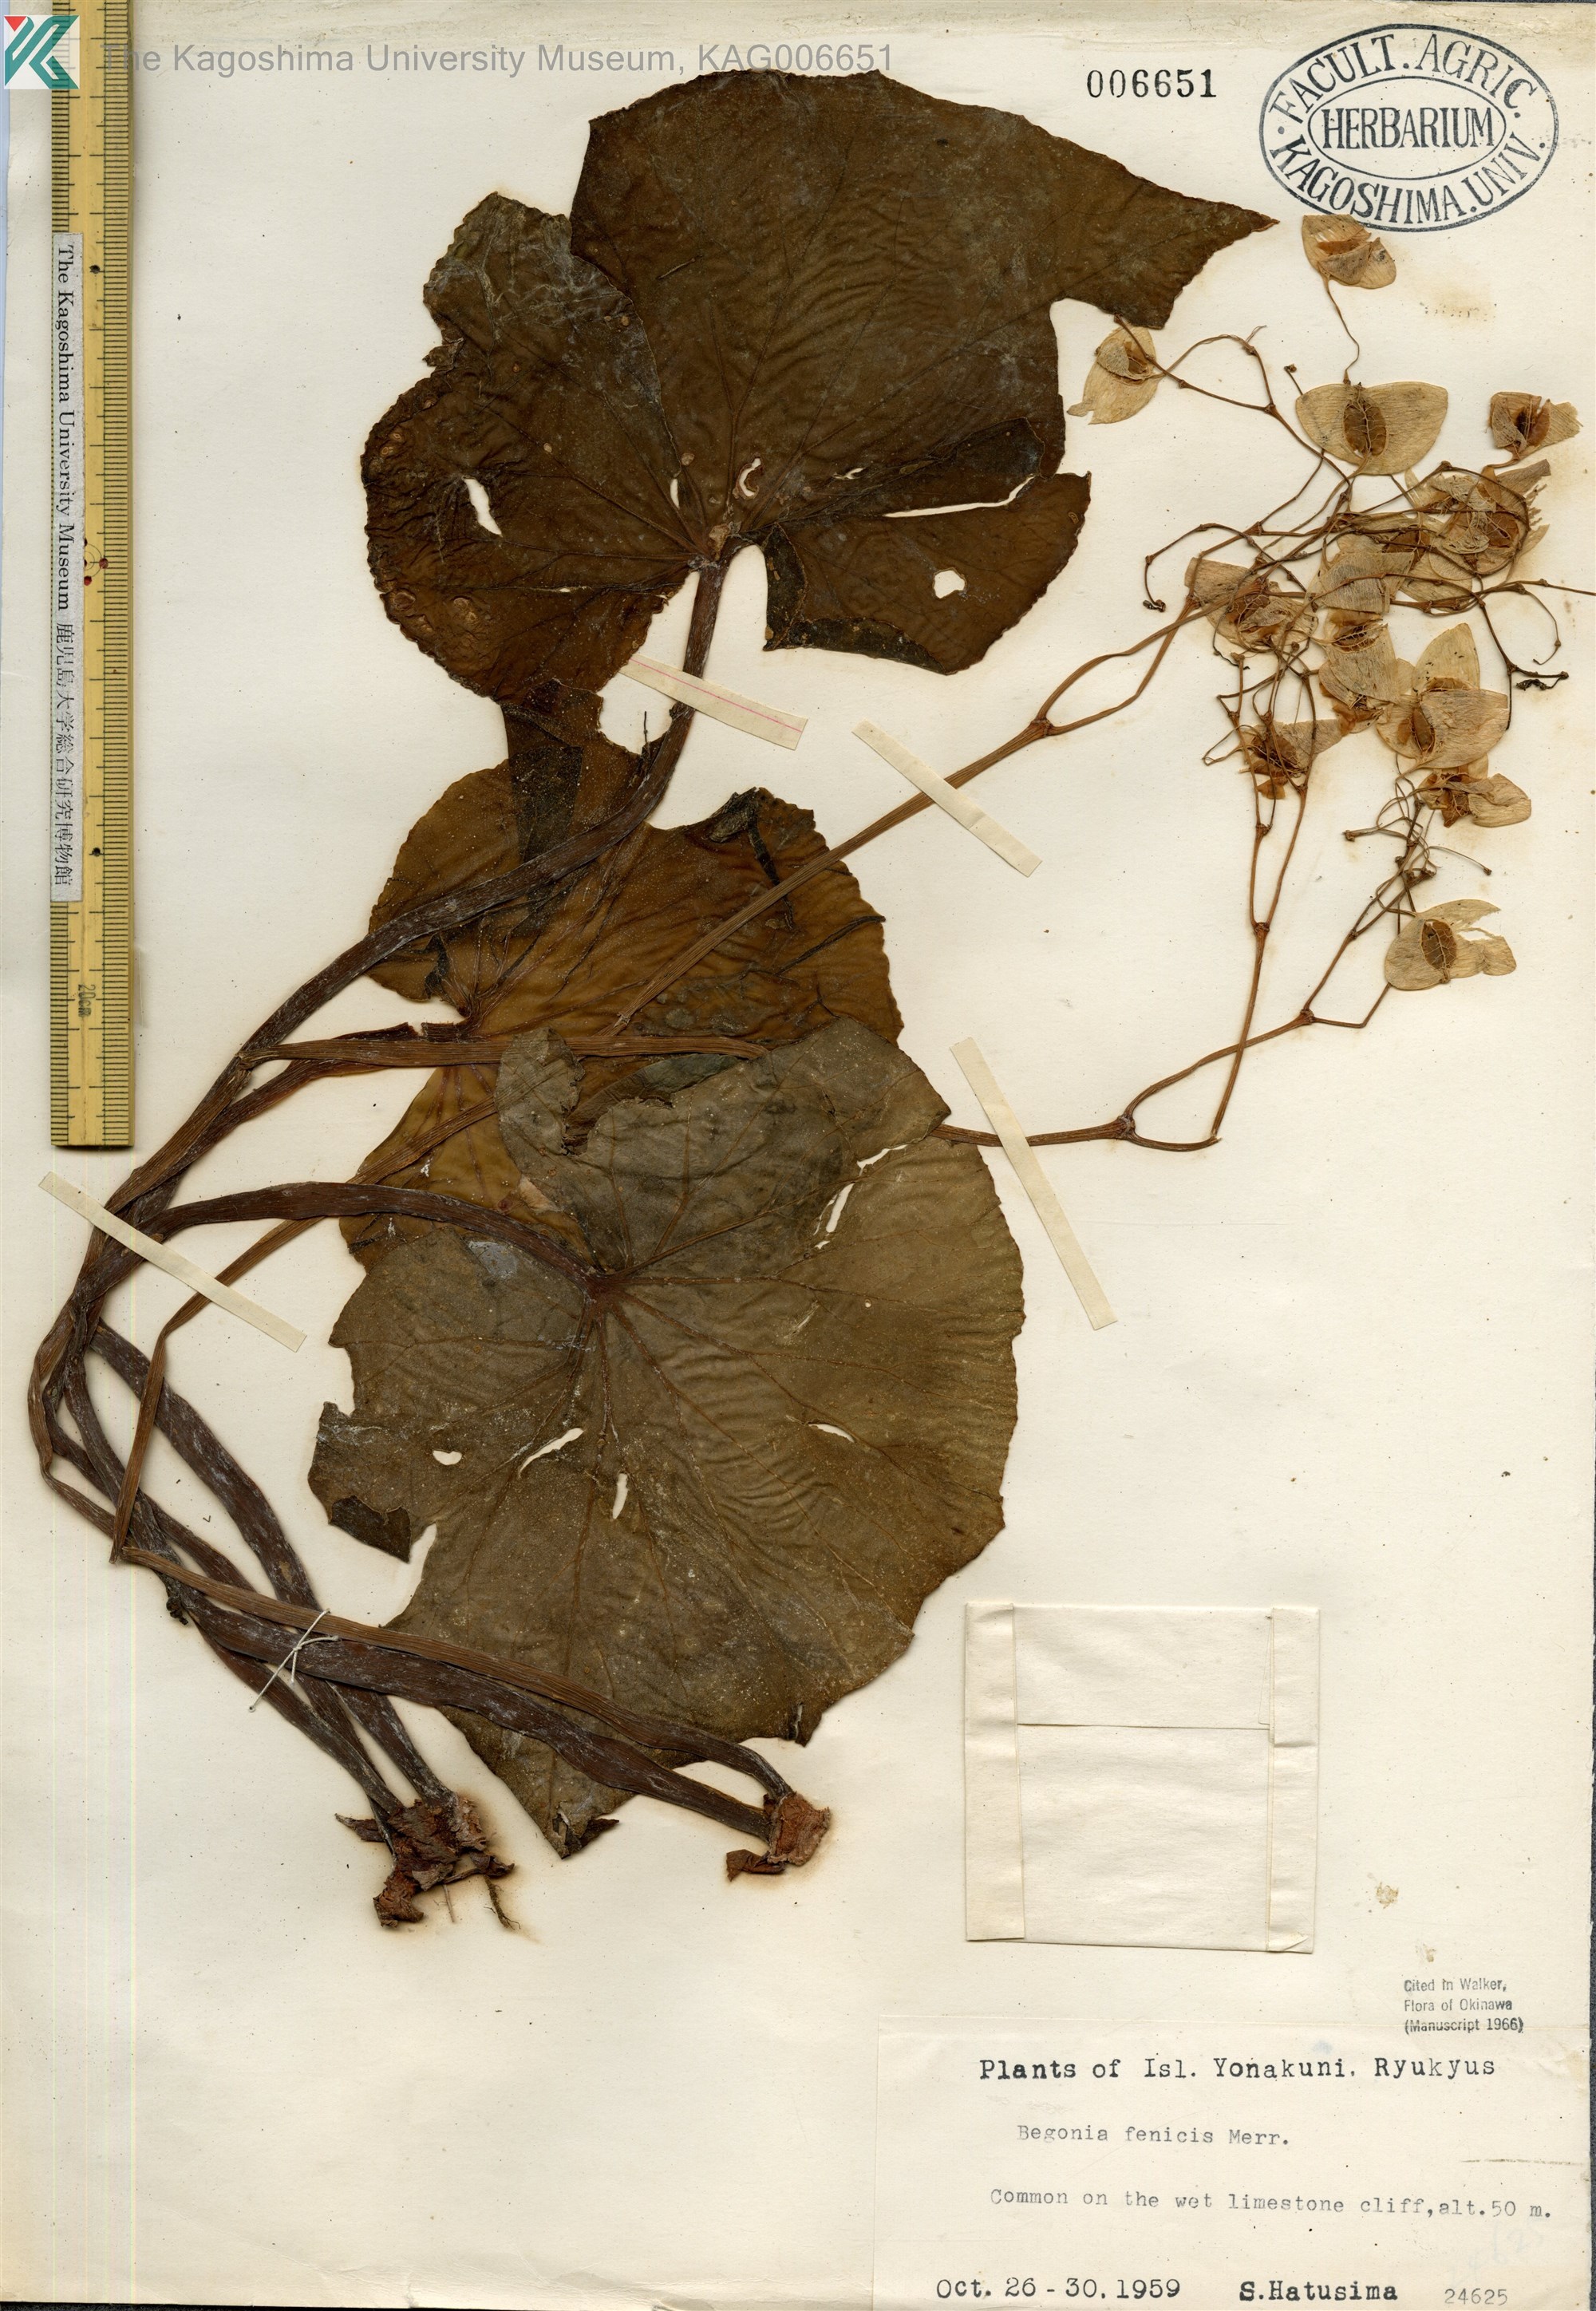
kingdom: Plantae
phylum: Tracheophyta
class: Magnoliopsida
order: Cucurbitales
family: Begoniaceae
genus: Begonia
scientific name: Begonia fenicis
